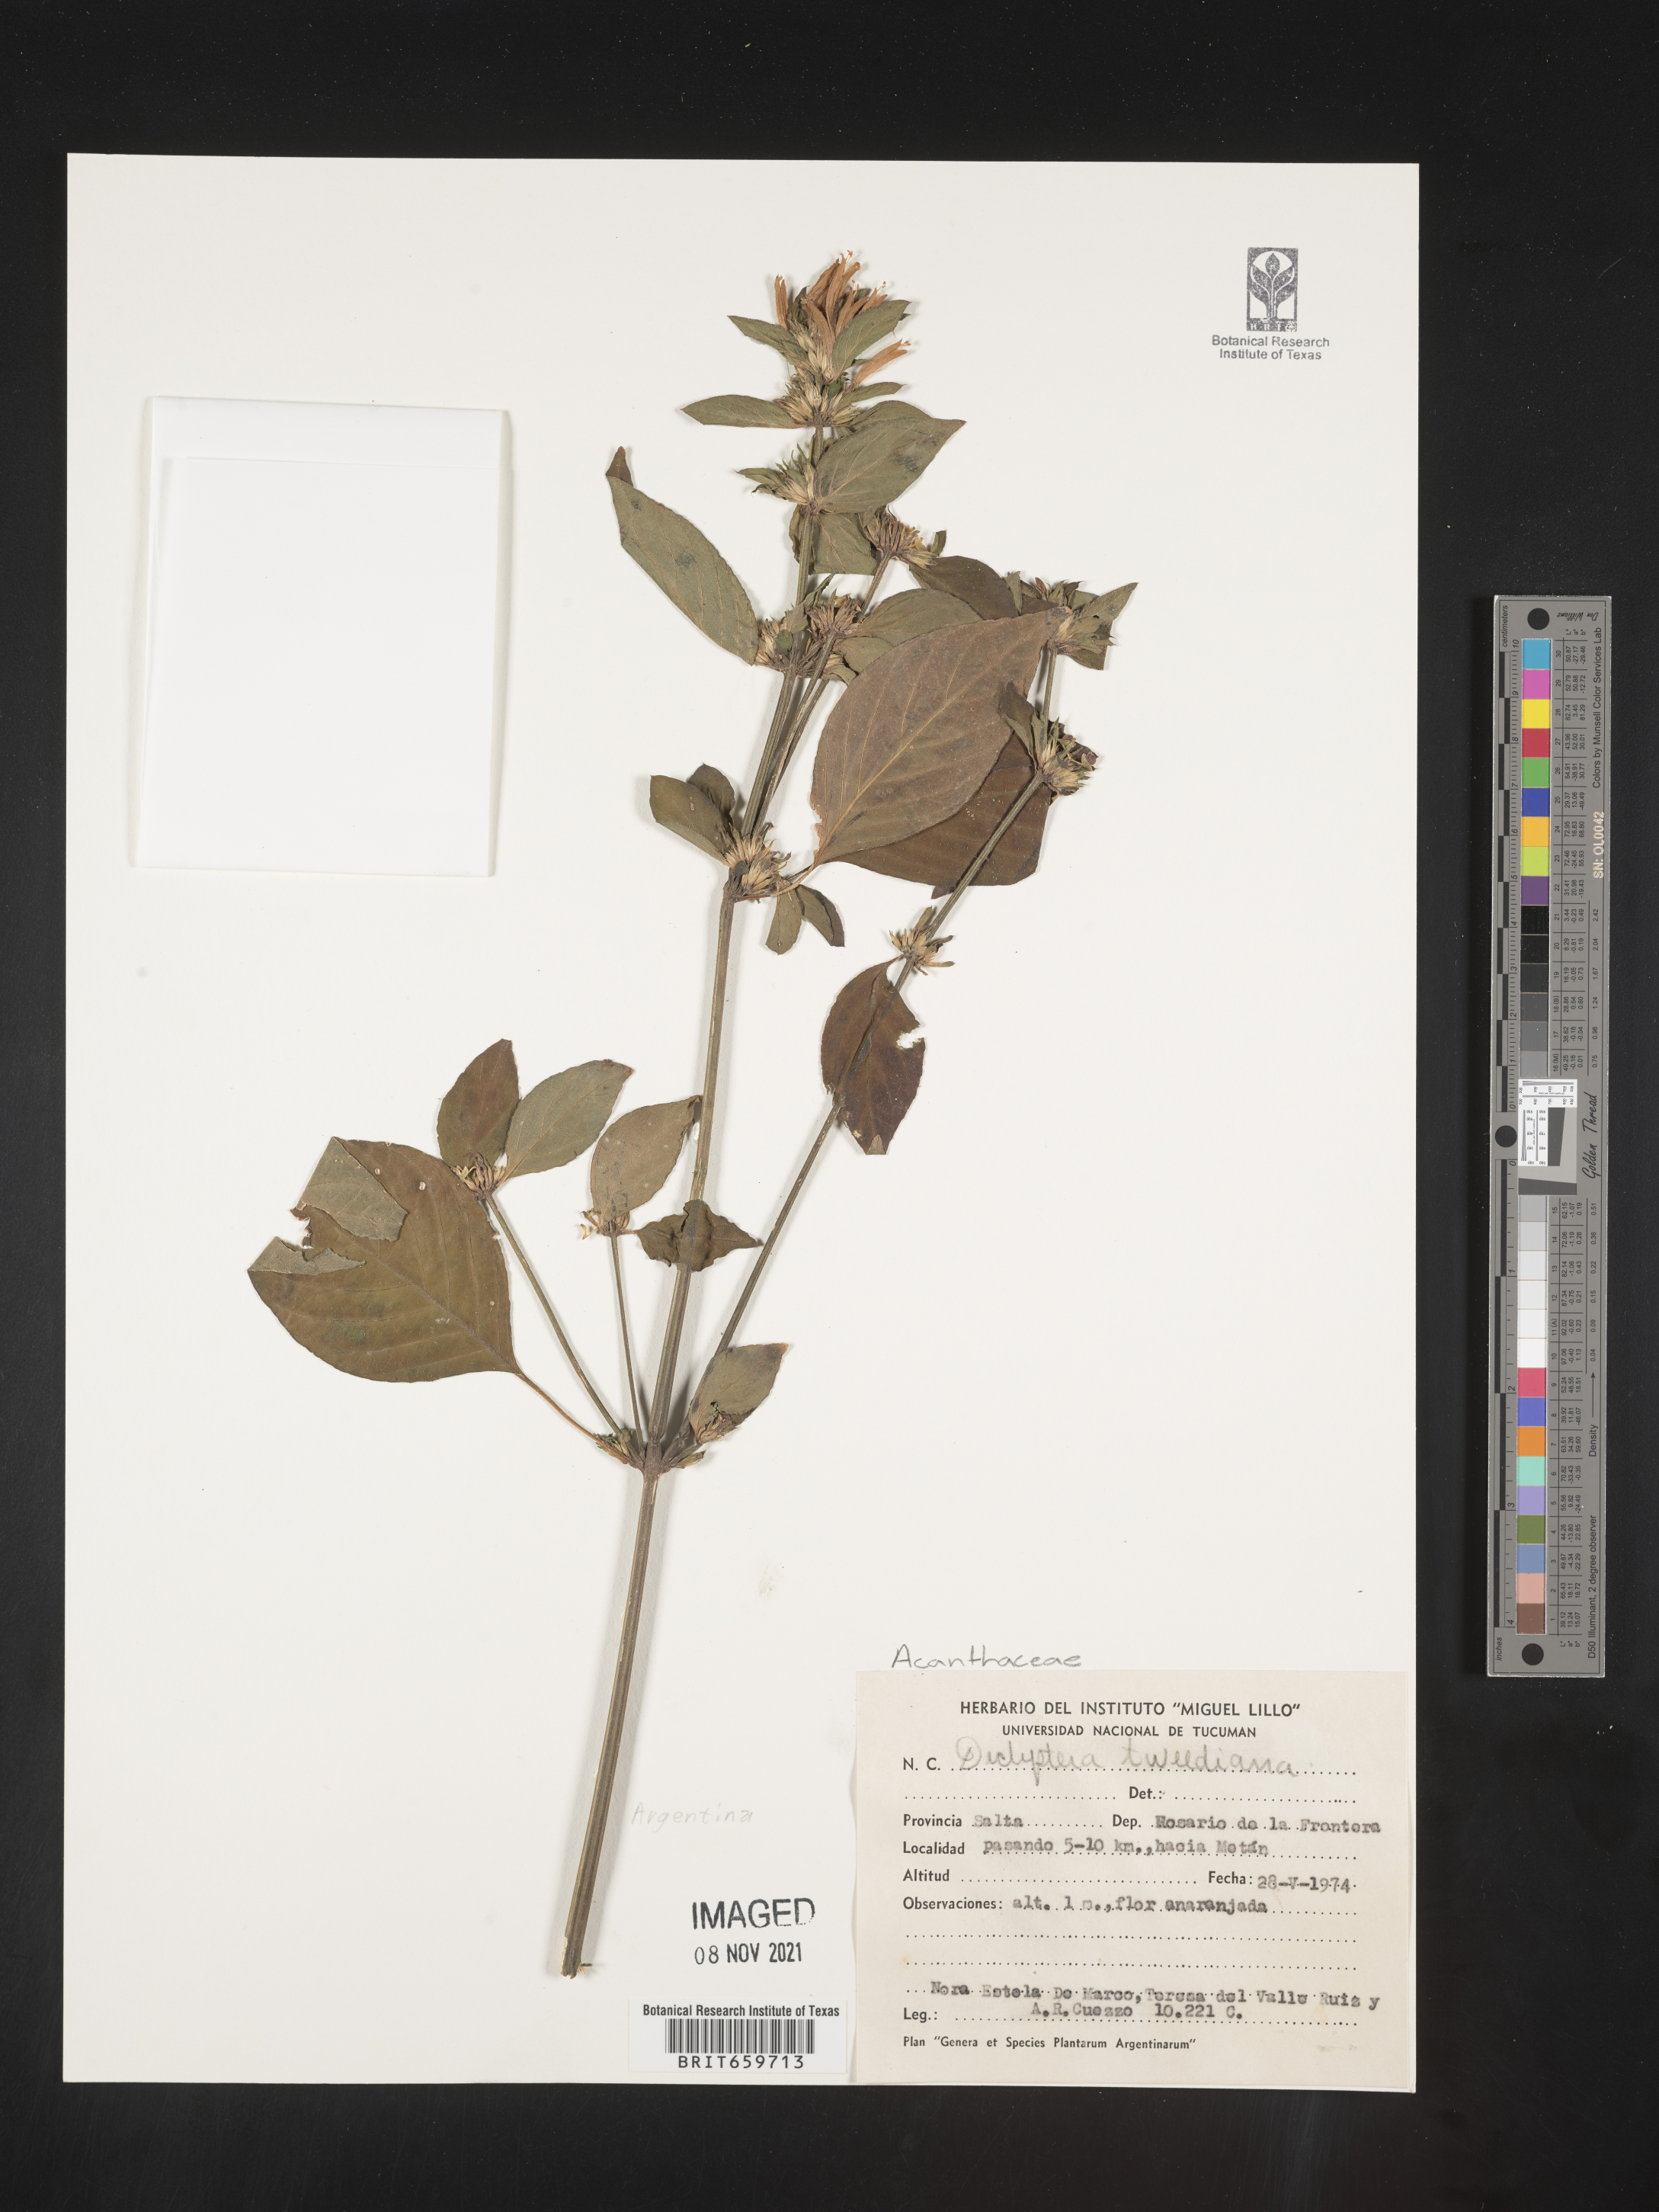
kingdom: Plantae
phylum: Tracheophyta
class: Magnoliopsida
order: Lamiales
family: Acanthaceae
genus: Dicliptera
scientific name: Dicliptera
